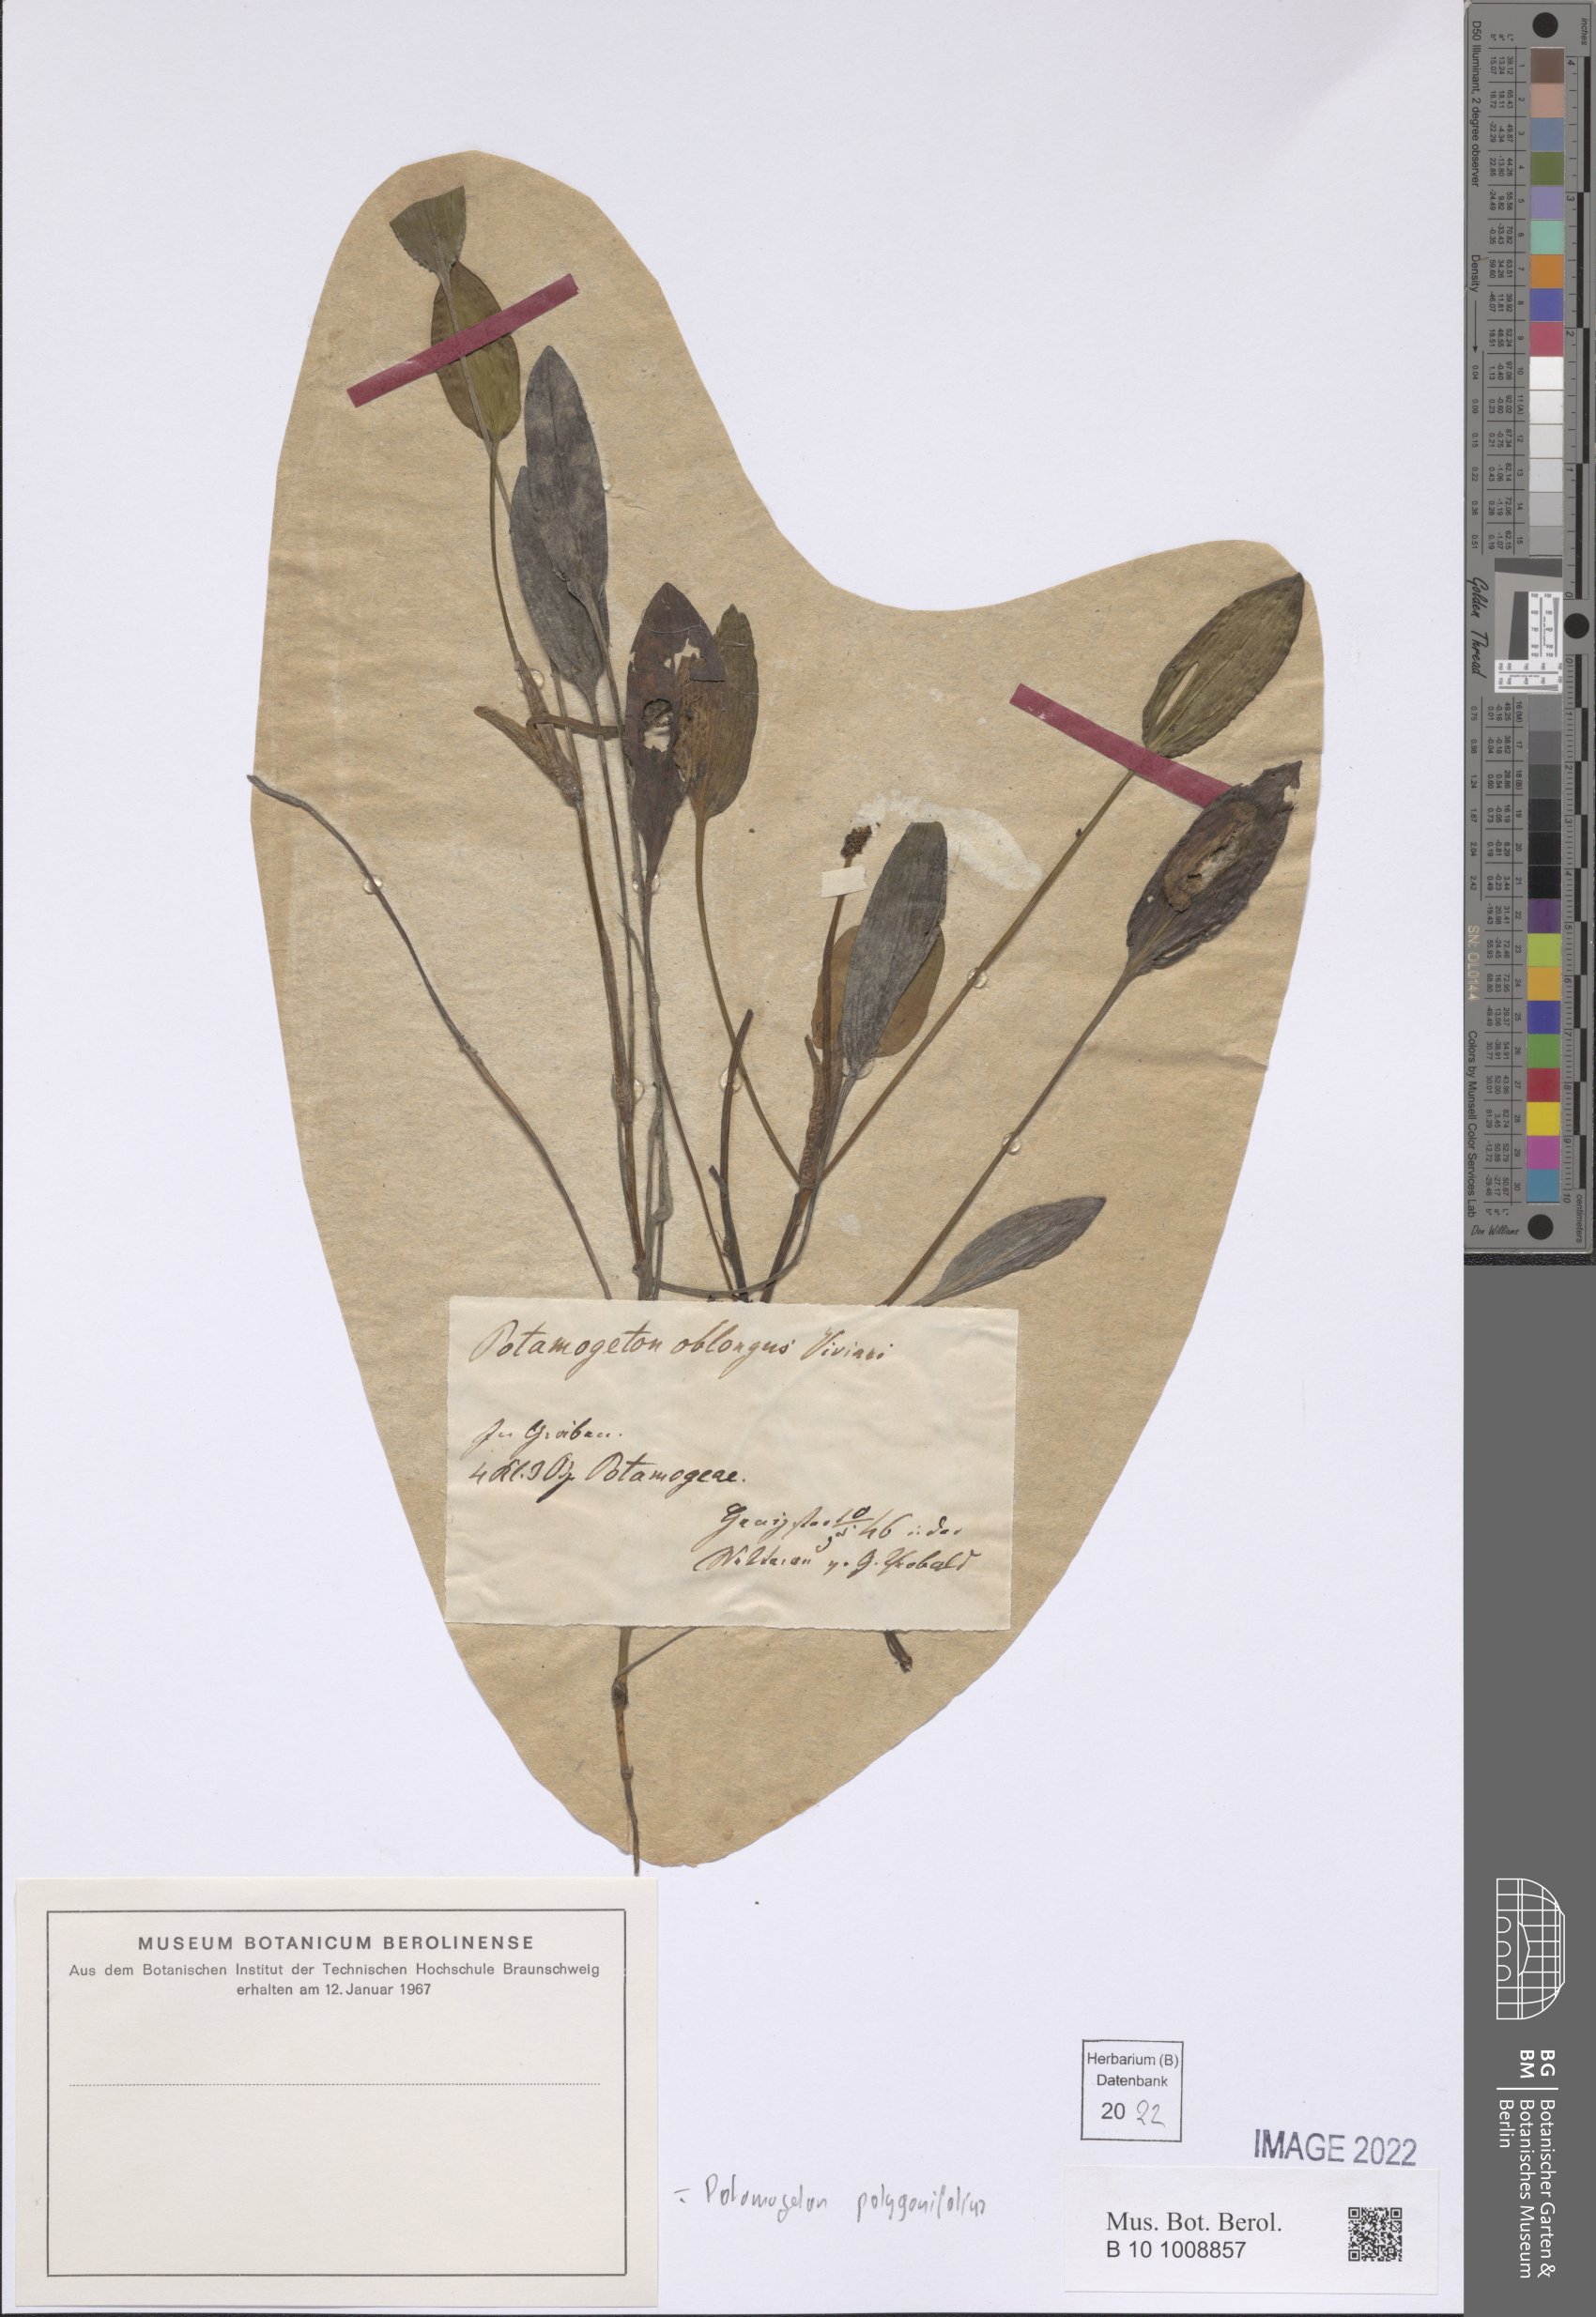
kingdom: Plantae
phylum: Tracheophyta
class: Liliopsida
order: Alismatales
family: Potamogetonaceae
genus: Potamogeton
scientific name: Potamogeton polygonifolius
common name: Bog pondweed
